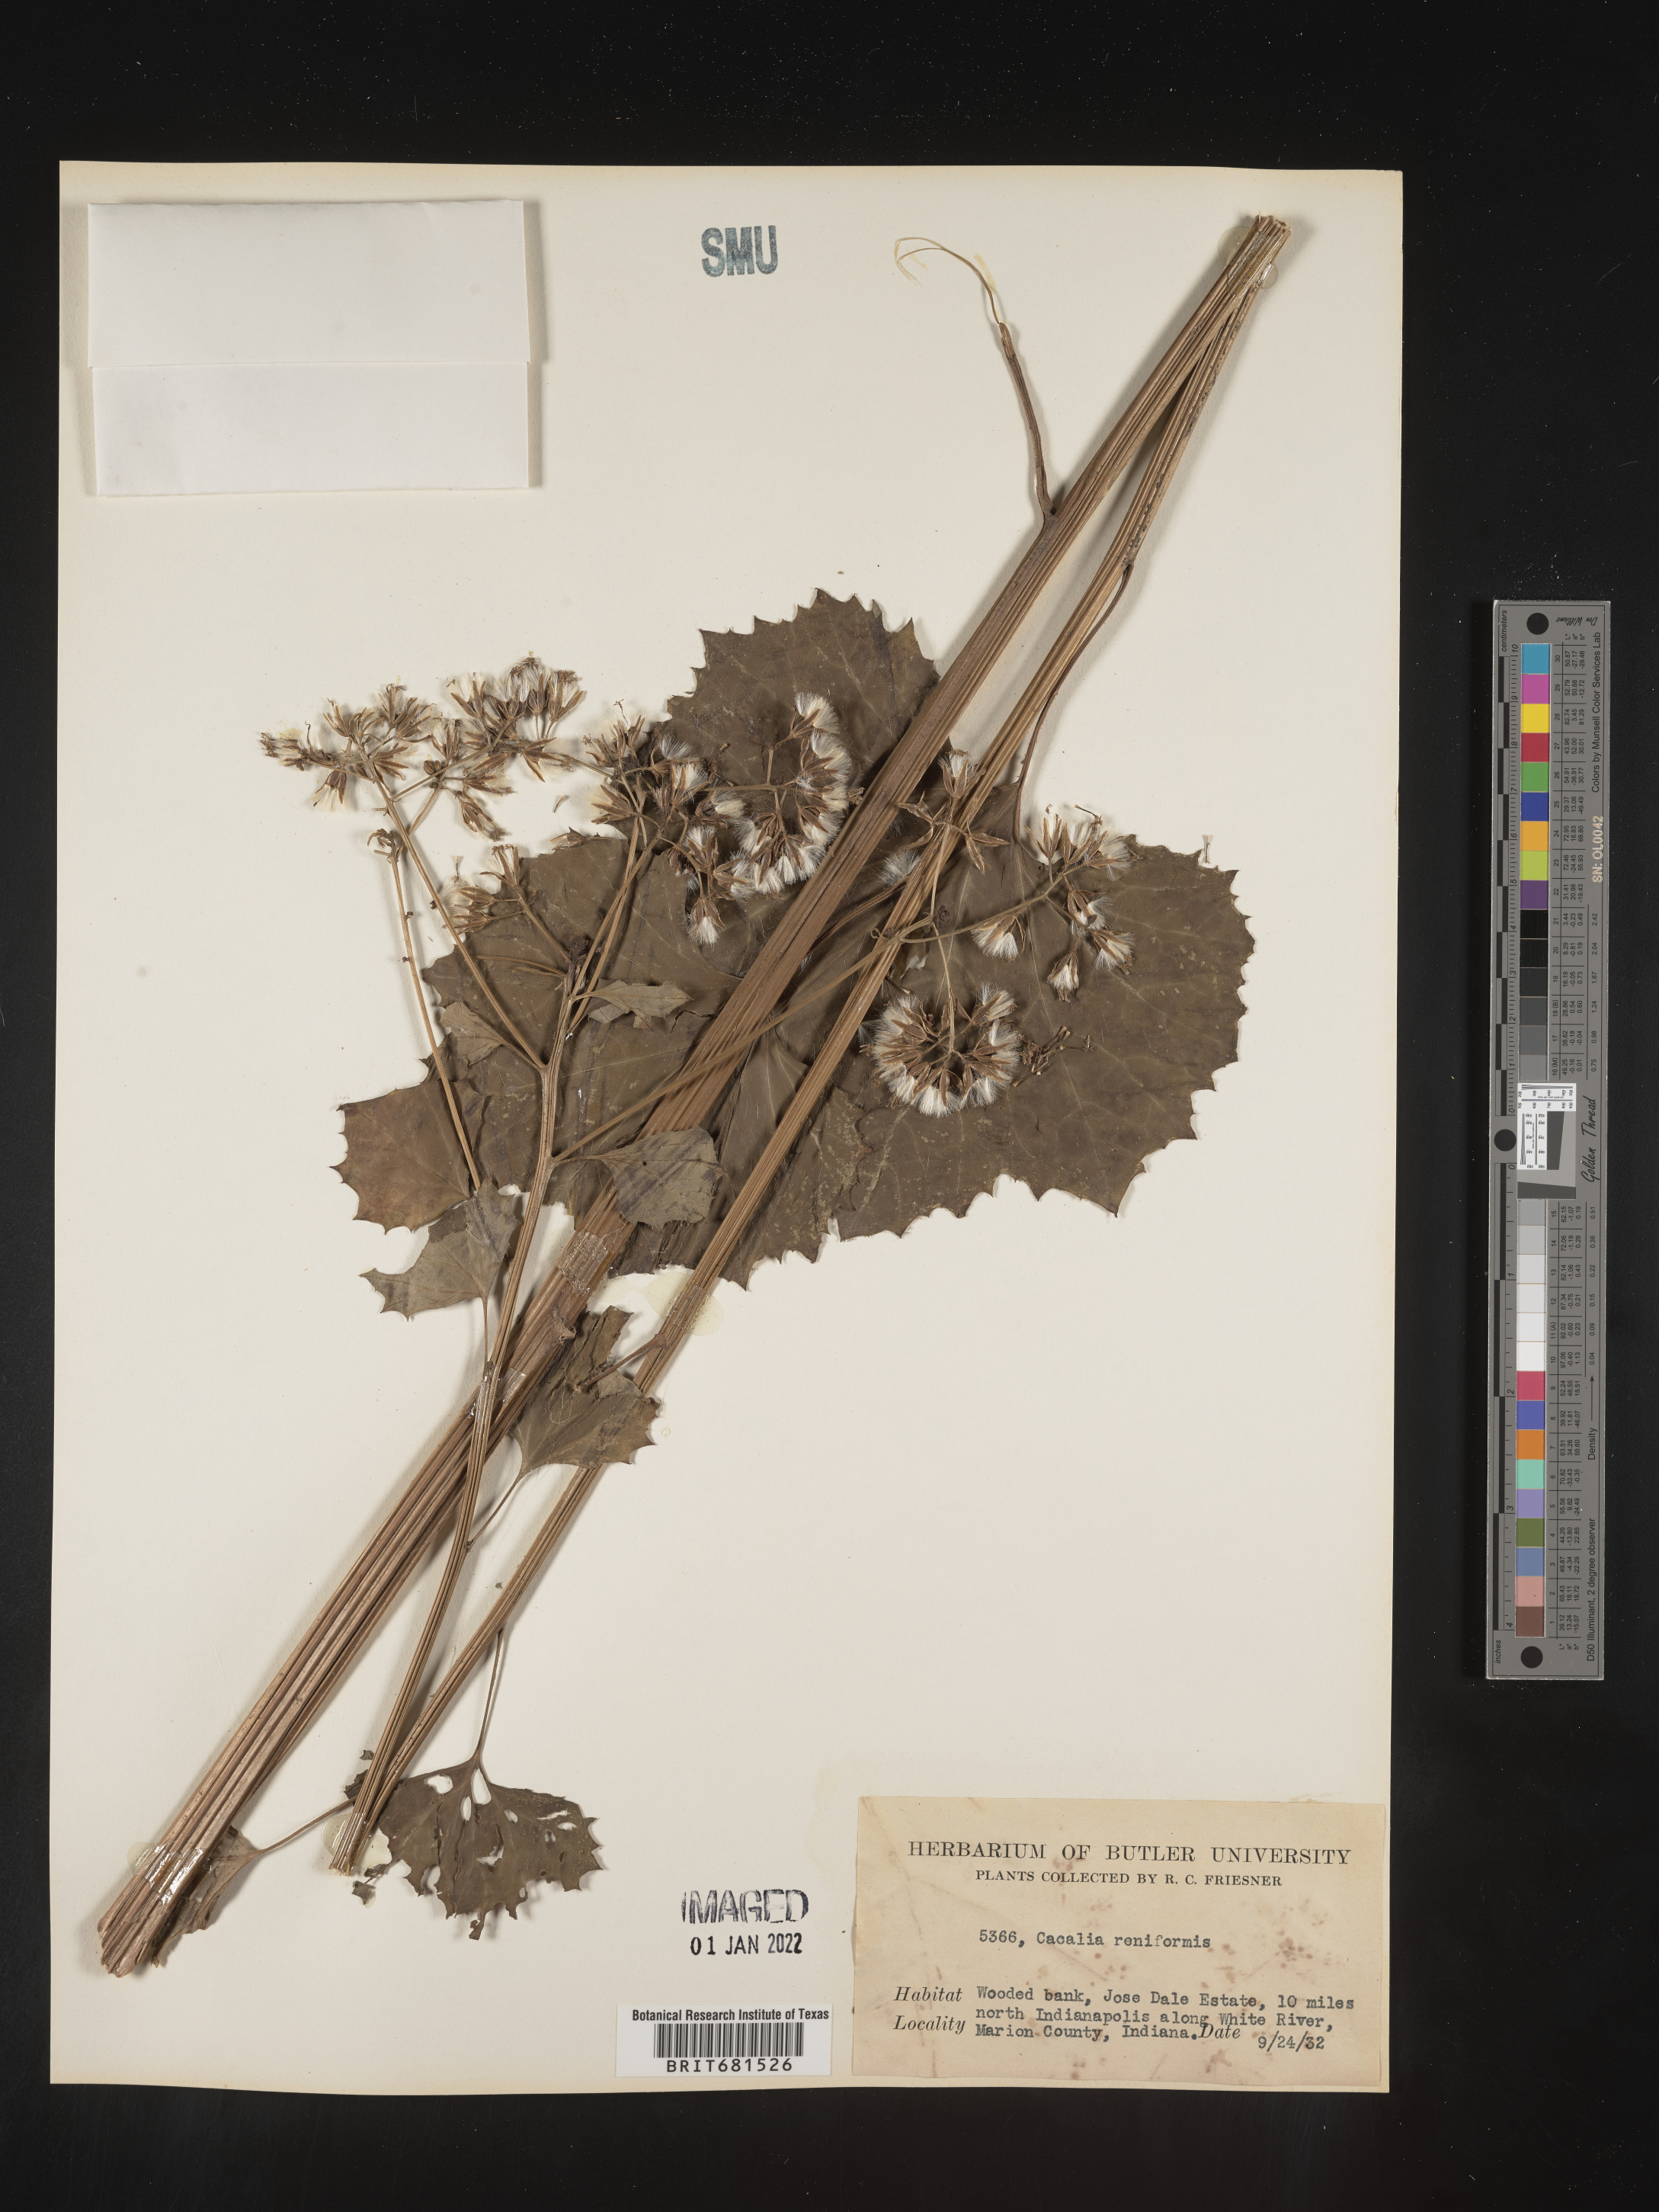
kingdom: Plantae
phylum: Tracheophyta
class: Magnoliopsida
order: Asterales
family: Asteraceae
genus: Arnoglossum
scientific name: Arnoglossum reniforme
